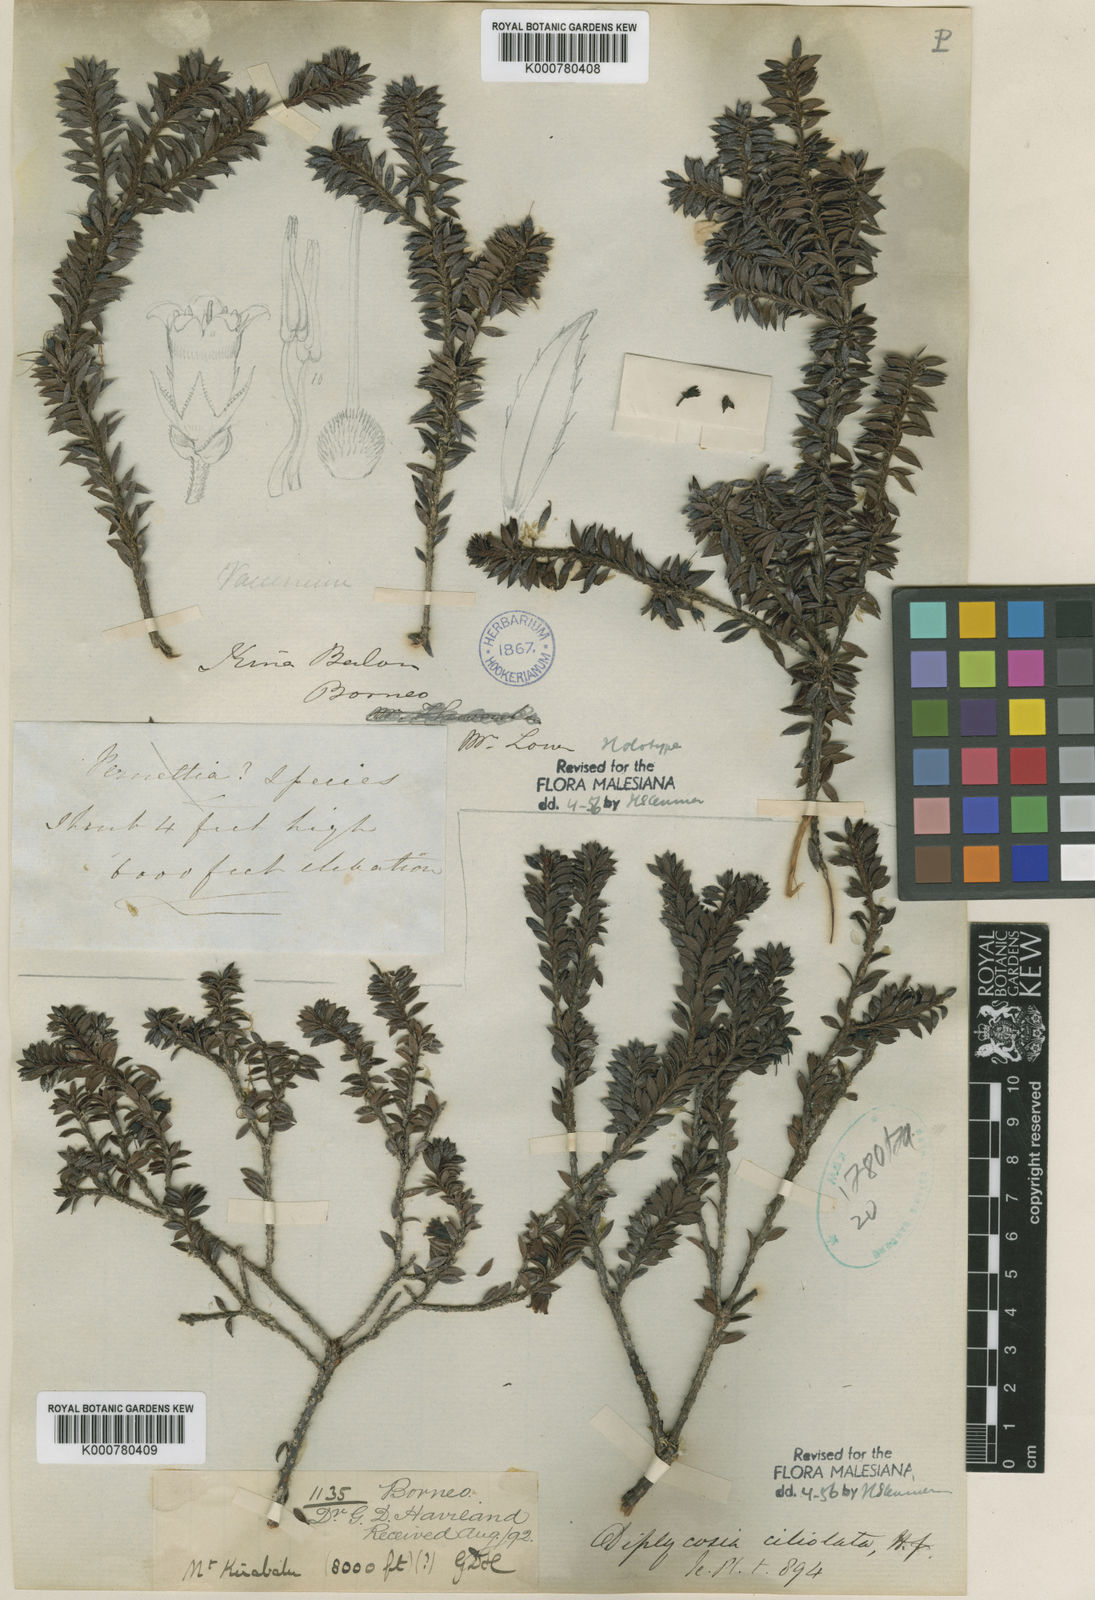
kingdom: Plantae
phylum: Tracheophyta
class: Magnoliopsida
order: Ericales
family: Ericaceae
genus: Gaultheria
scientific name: Gaultheria ciliolata
